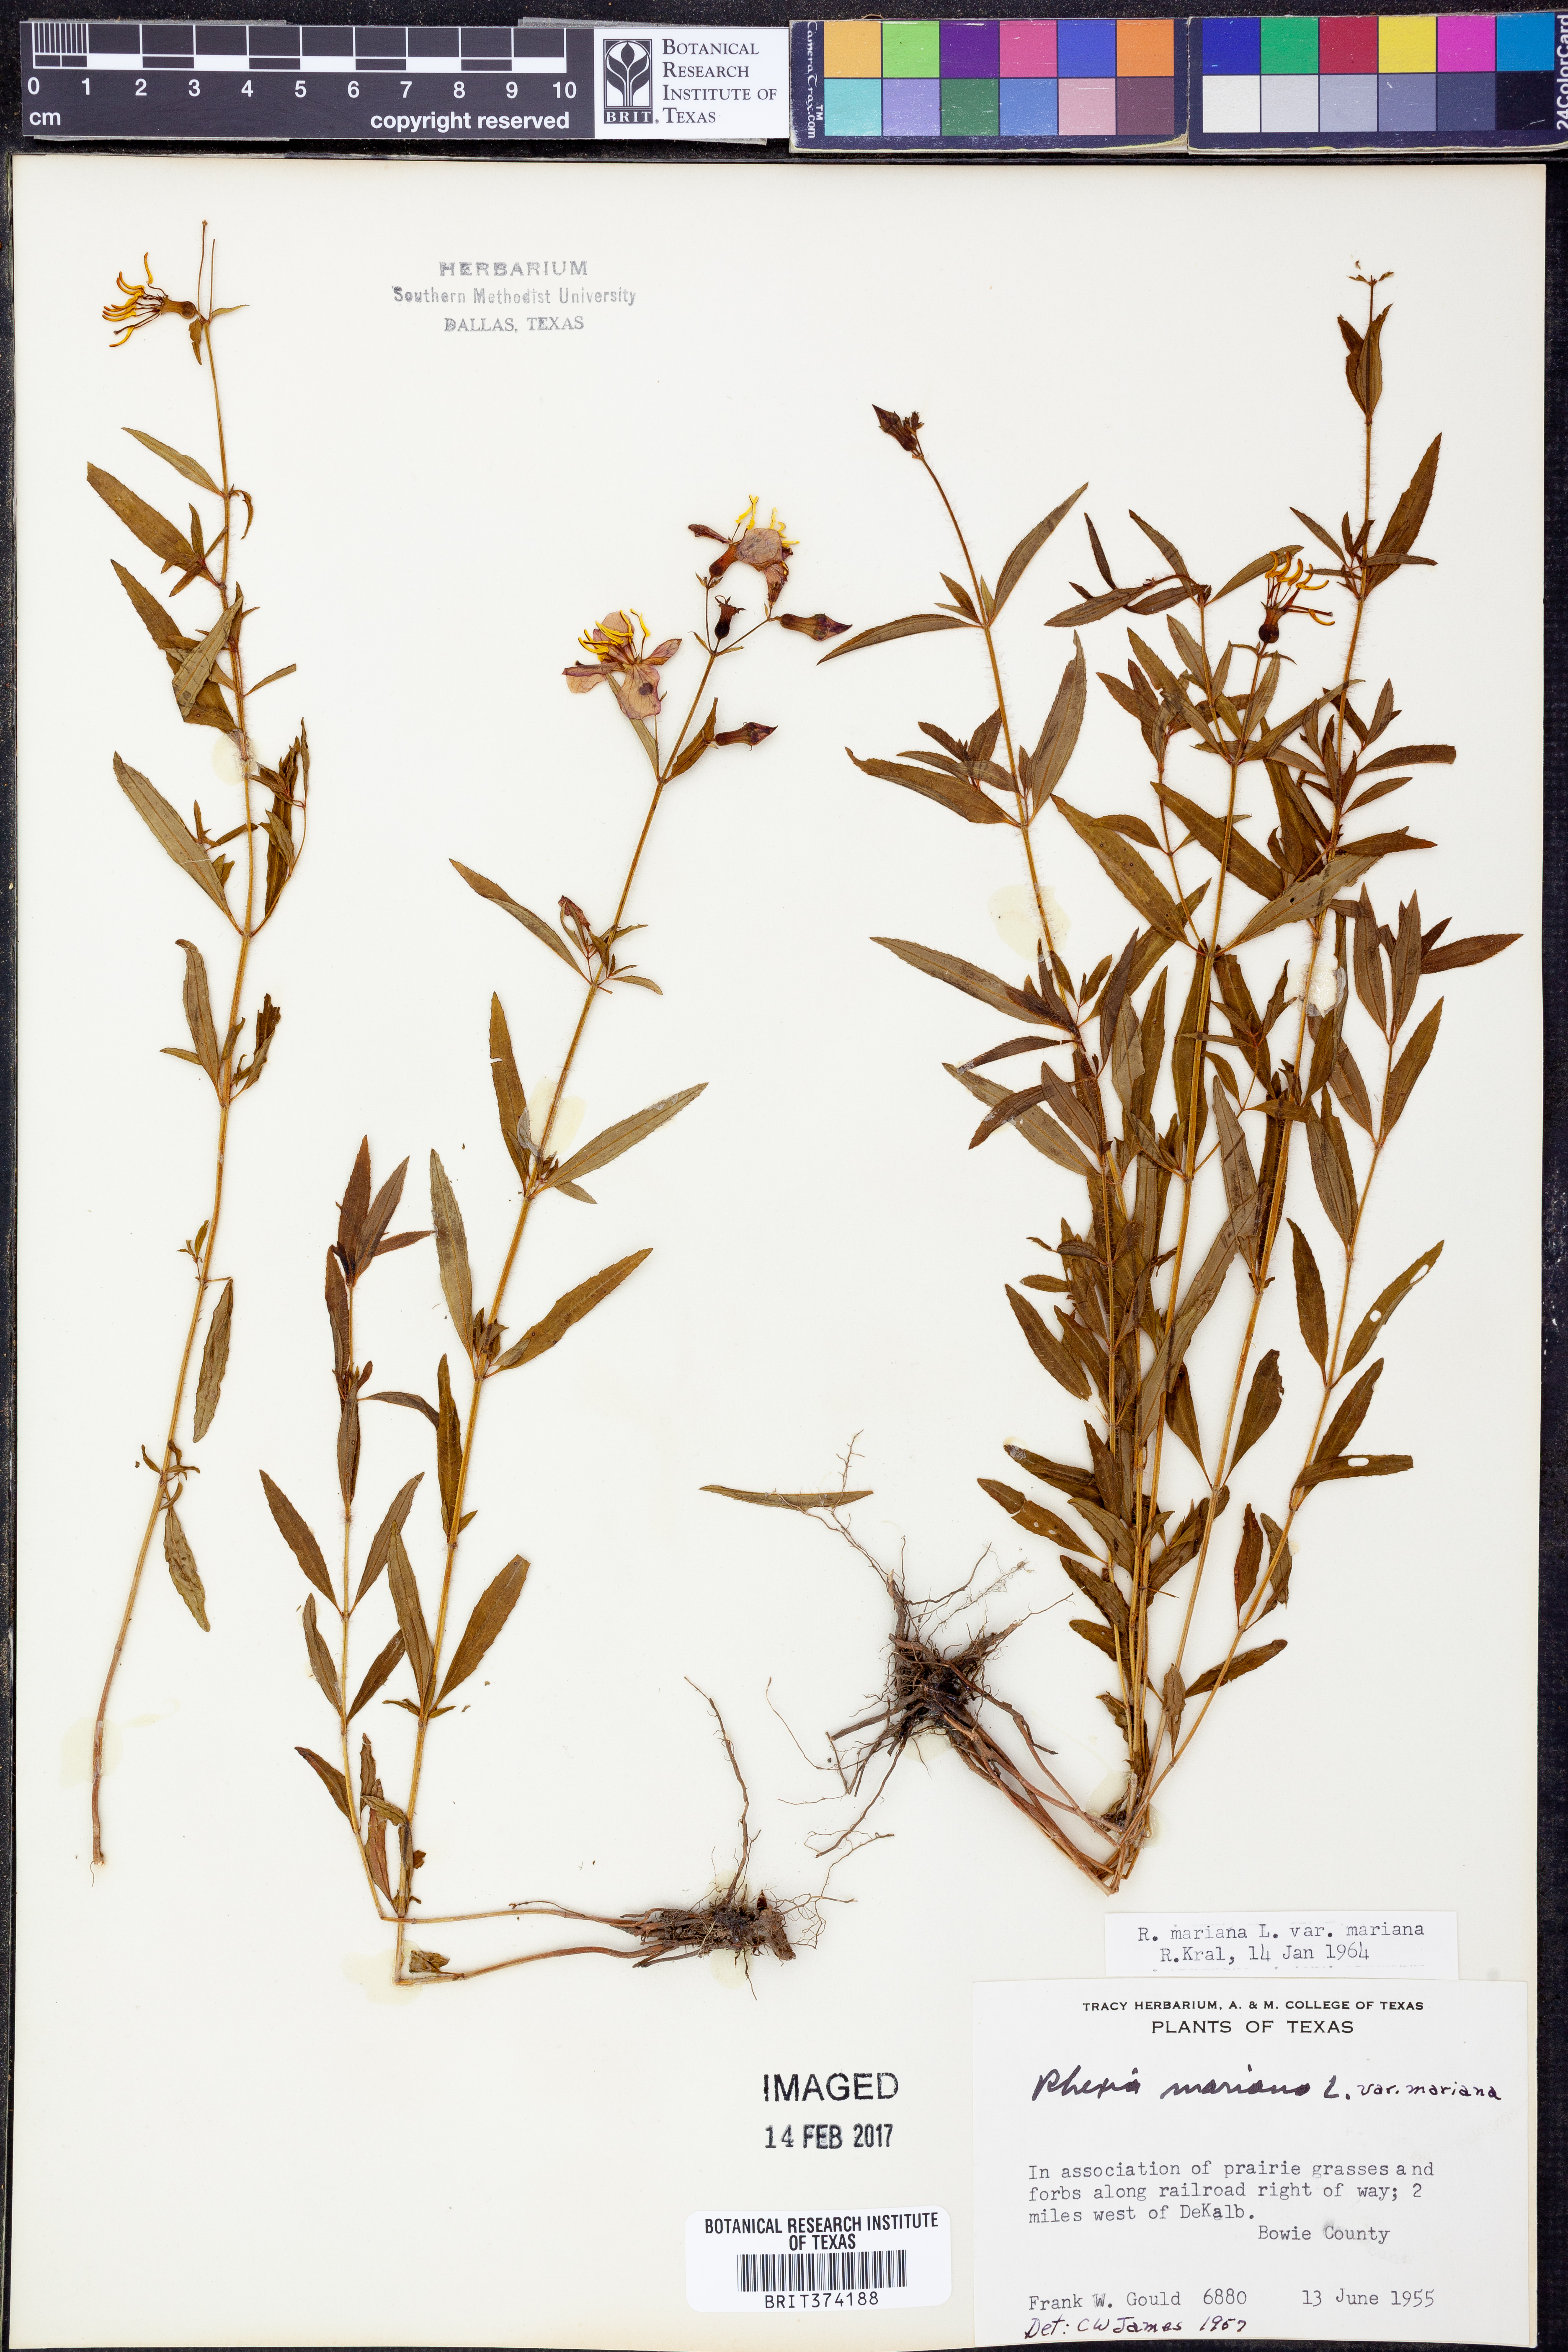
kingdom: Plantae
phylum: Tracheophyta
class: Magnoliopsida
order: Myrtales
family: Melastomataceae
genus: Rhexia
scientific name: Rhexia mariana
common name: Dull meadow-pitcher
